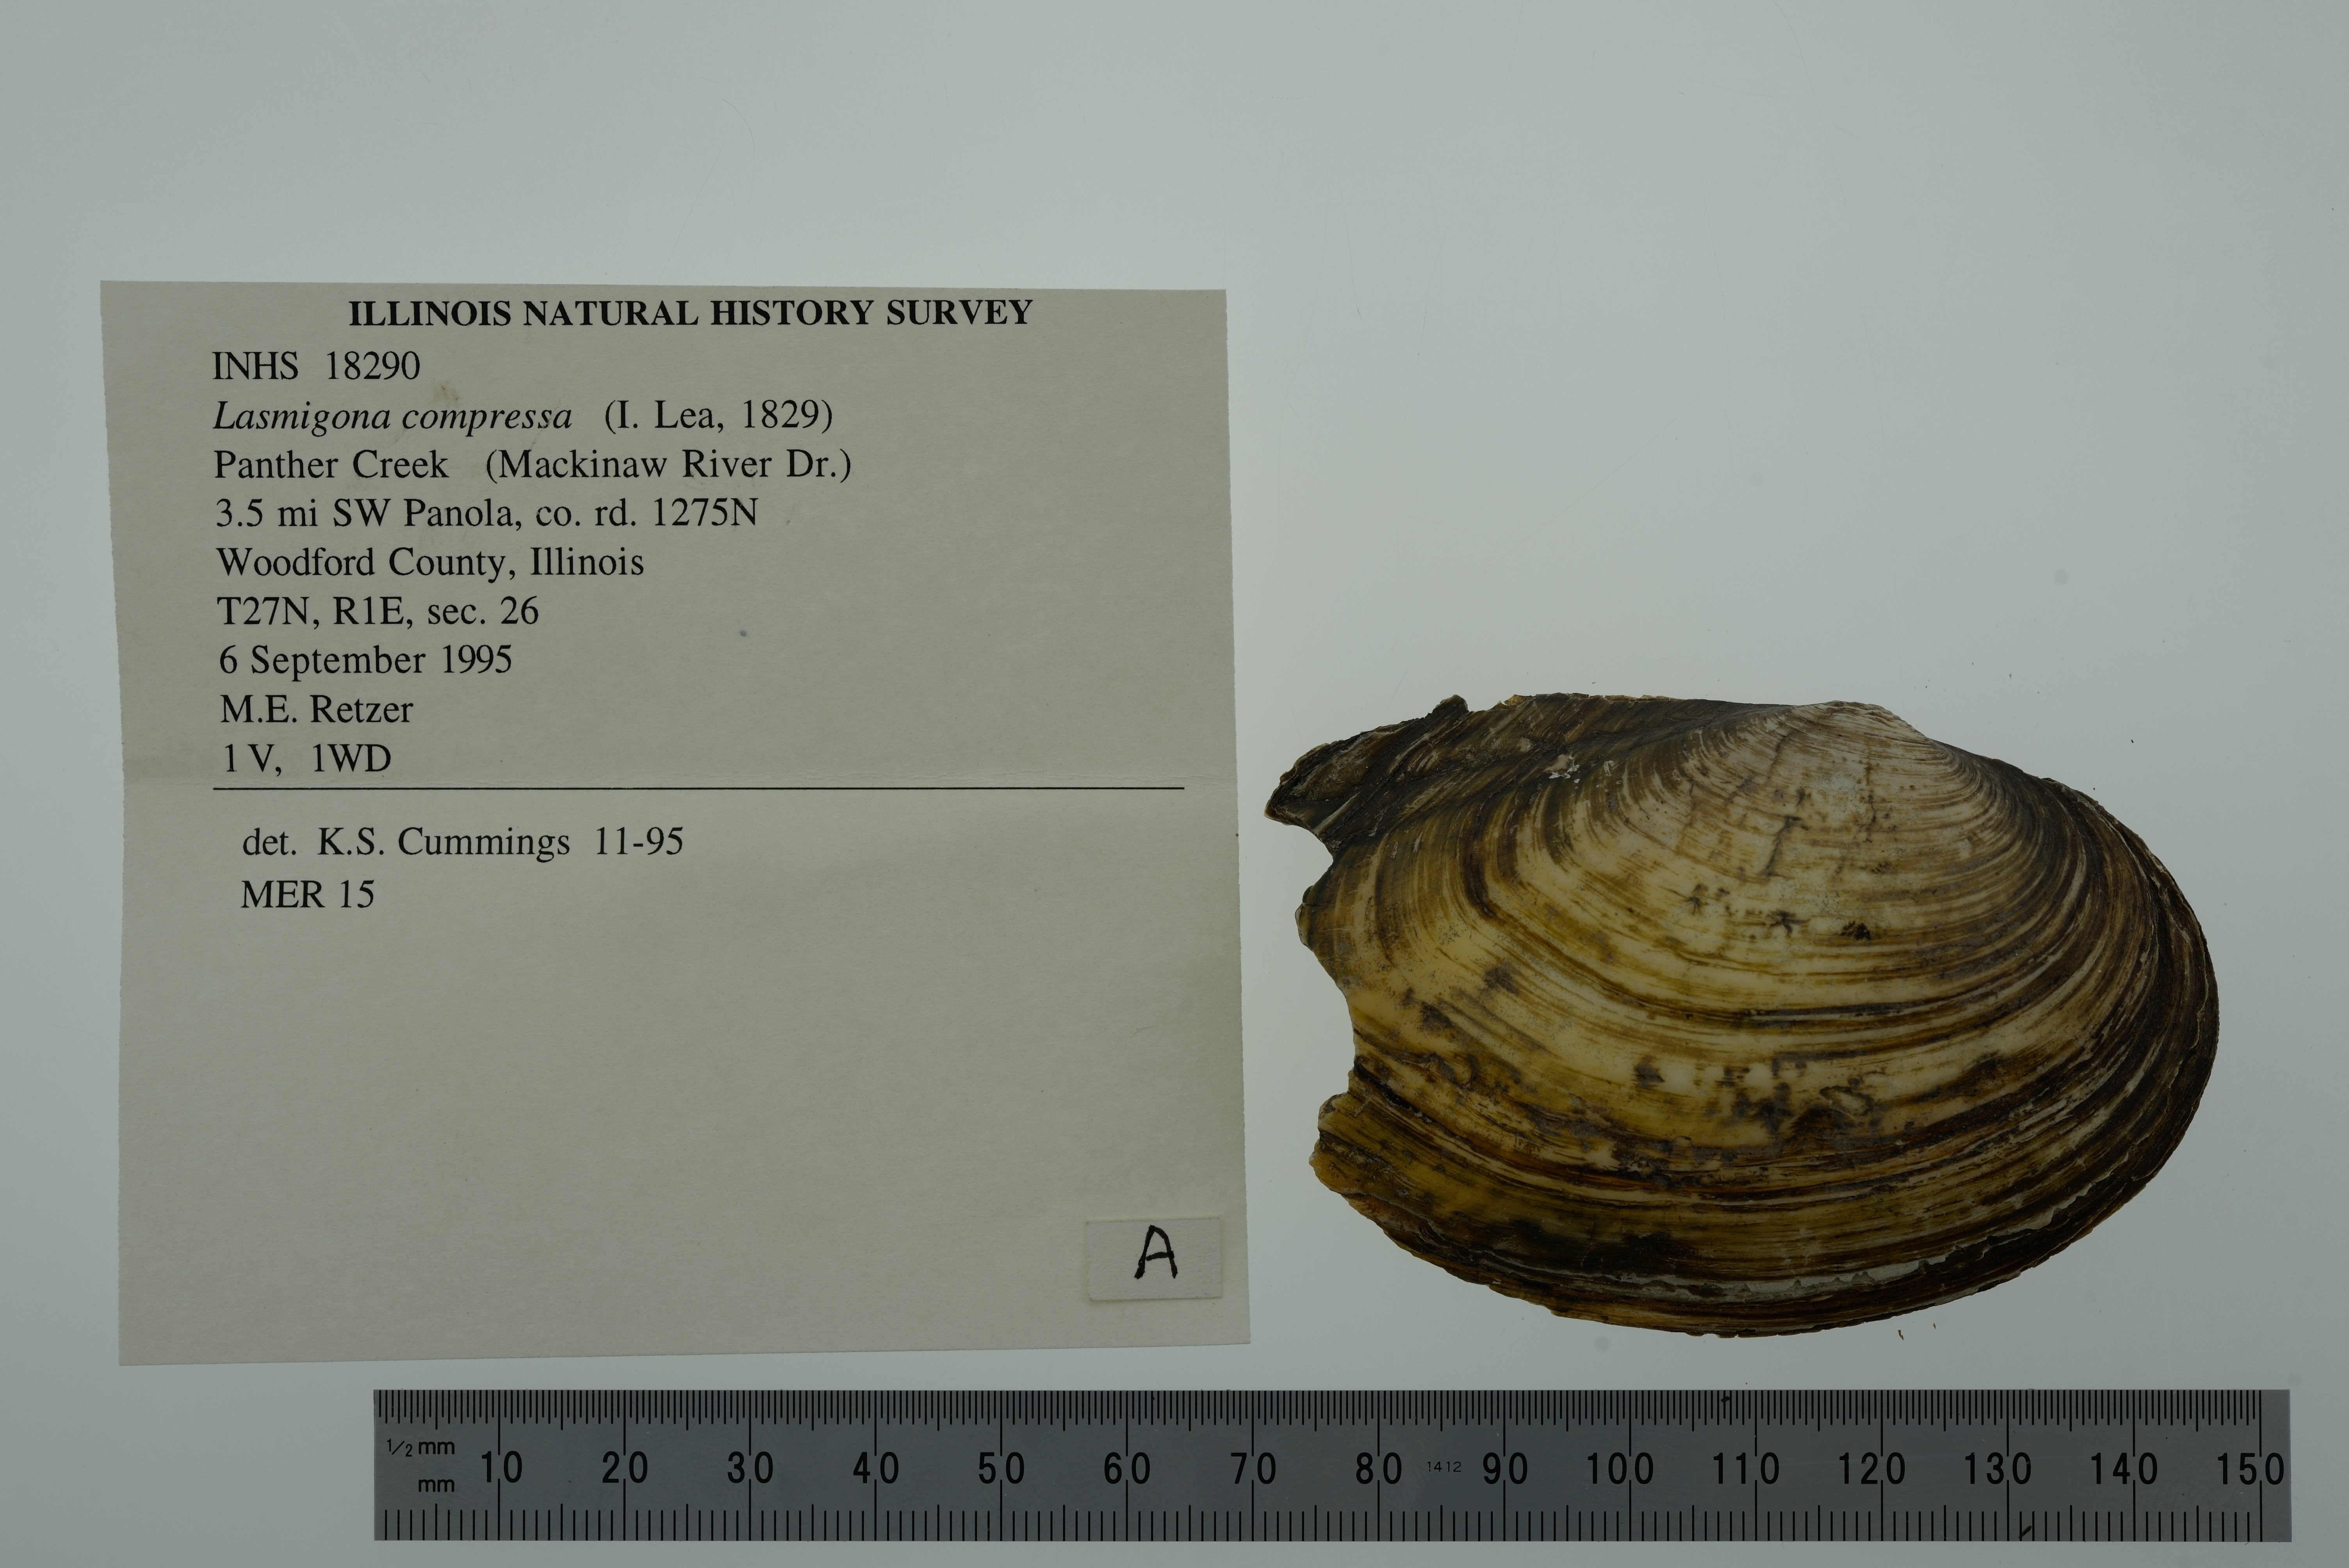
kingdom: Animalia
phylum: Mollusca
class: Bivalvia
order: Unionida
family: Unionidae
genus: Lasmigona
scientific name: Lasmigona compressa
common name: Creek heelsplitter
